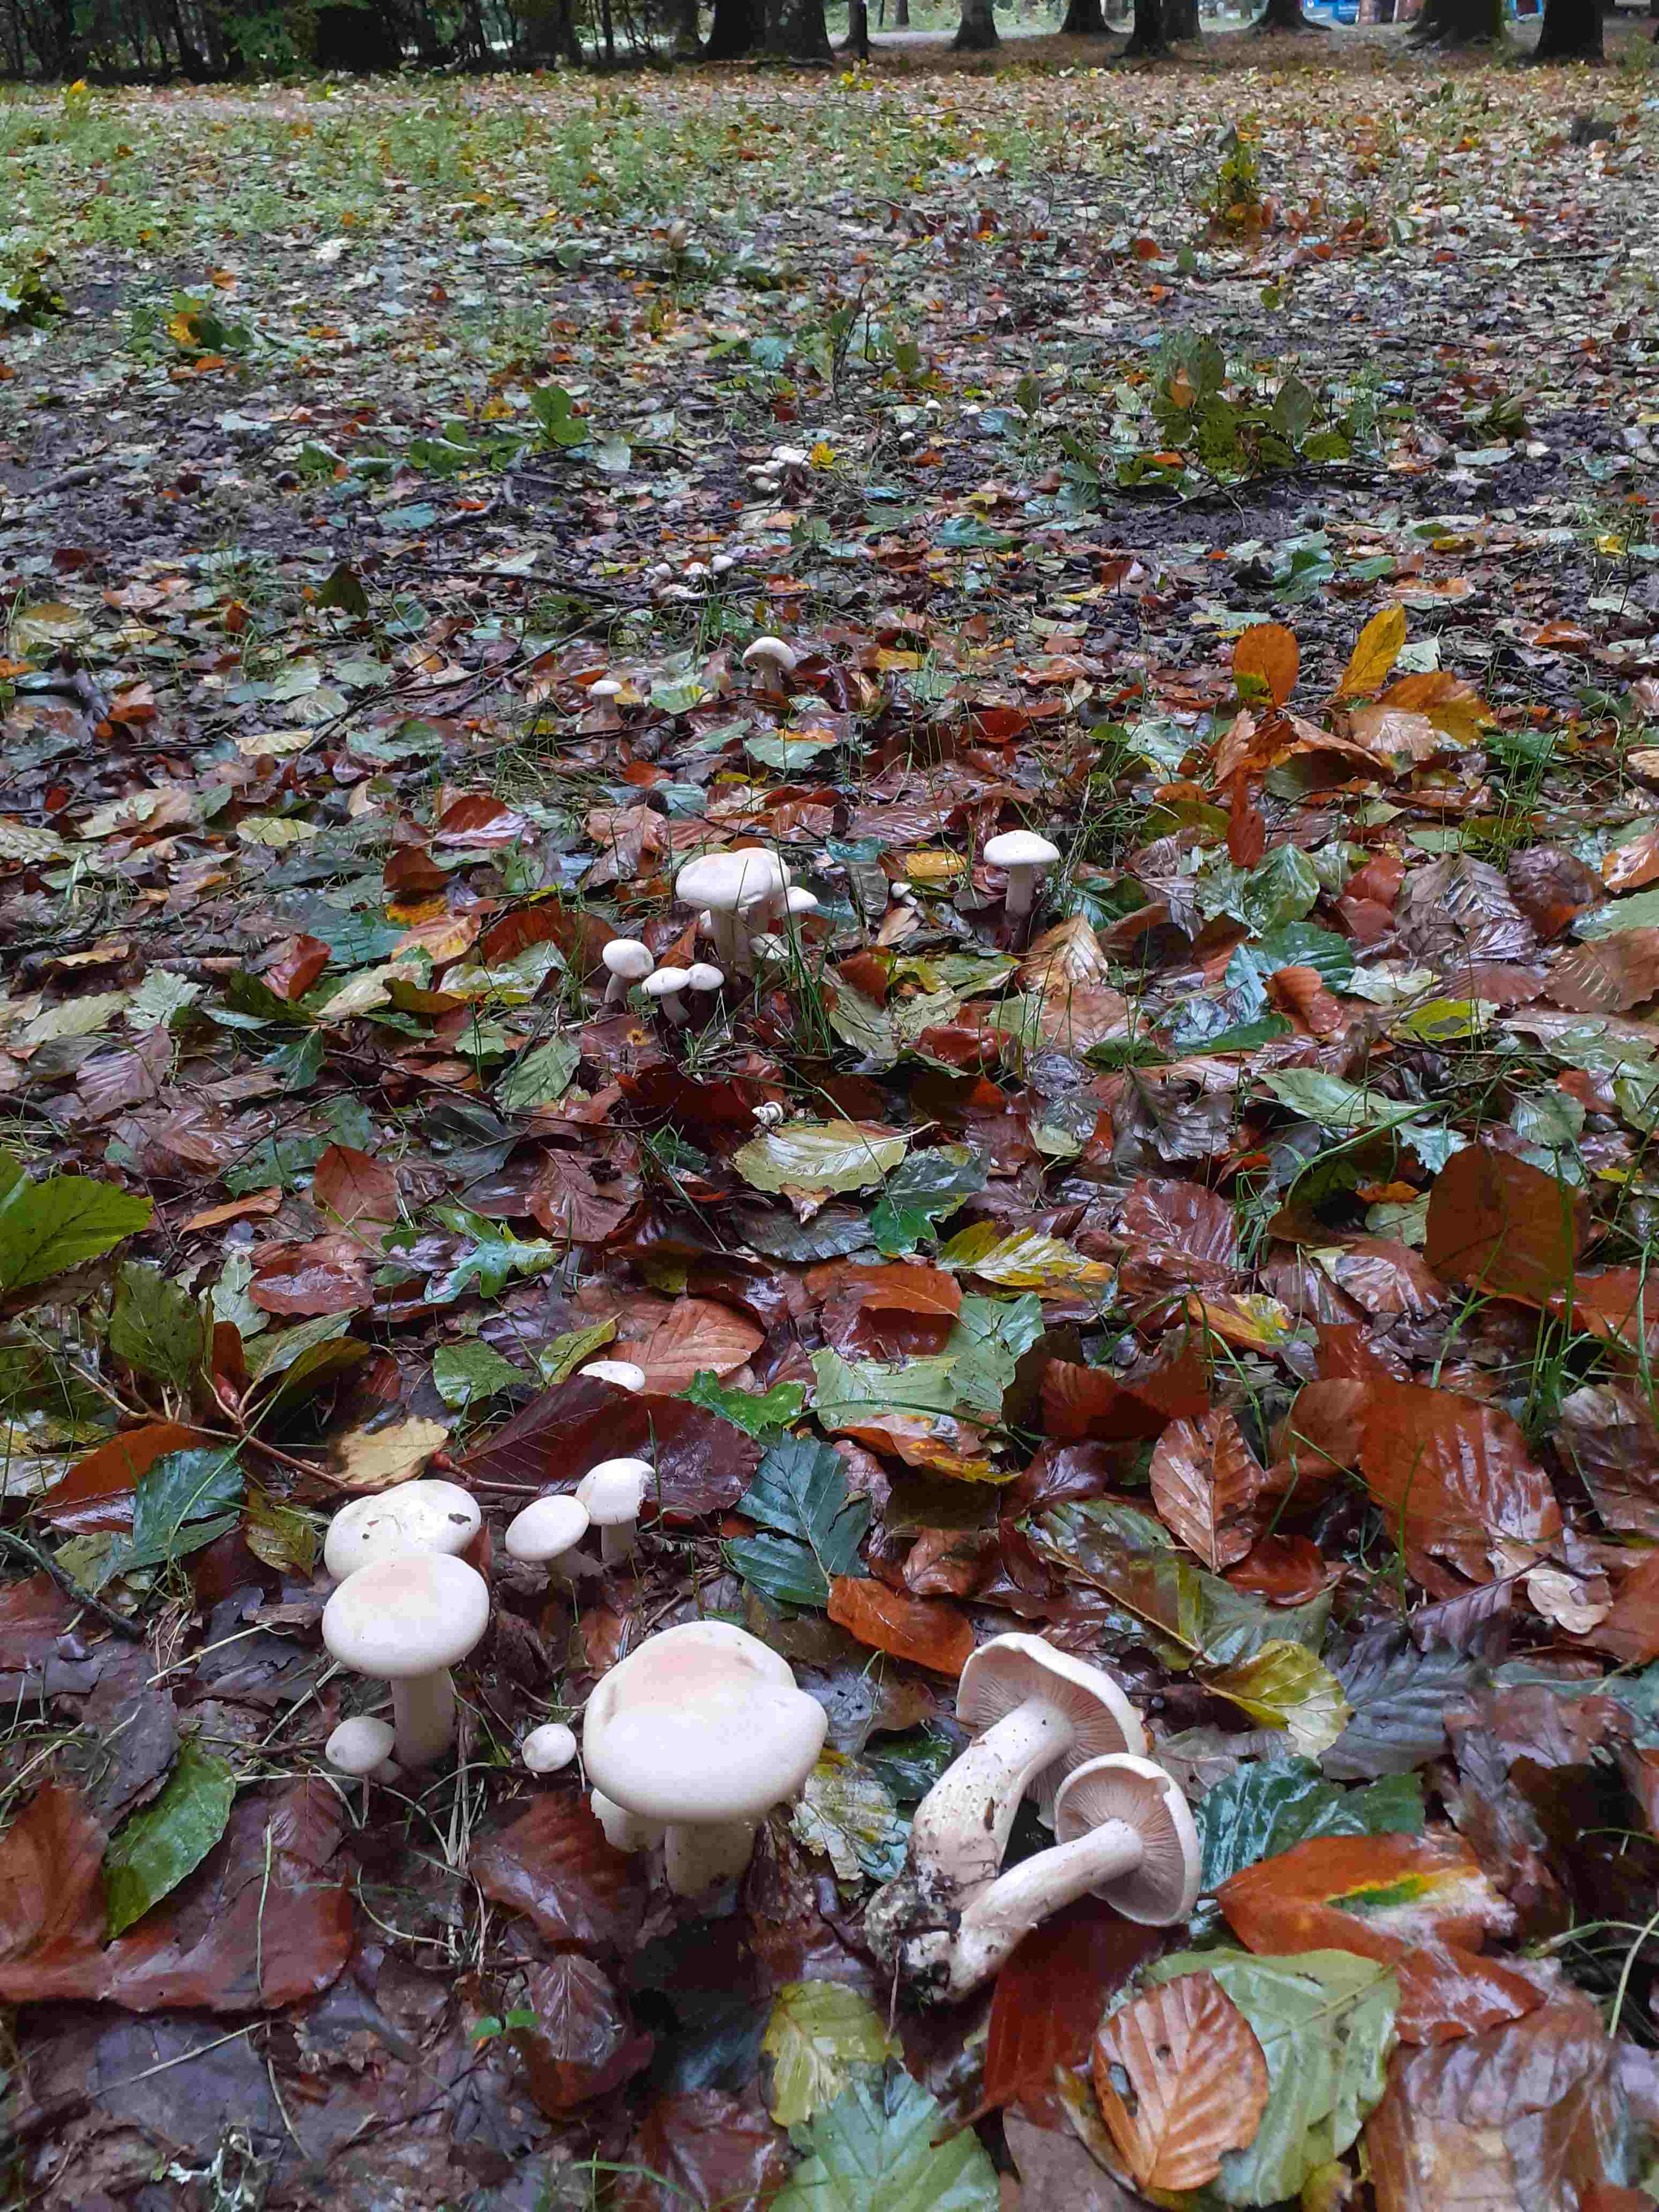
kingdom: Fungi
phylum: Basidiomycota
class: Agaricomycetes
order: Agaricales
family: Tricholomataceae
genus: Lepista
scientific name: Lepista irina
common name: violduftende hekseringshat
